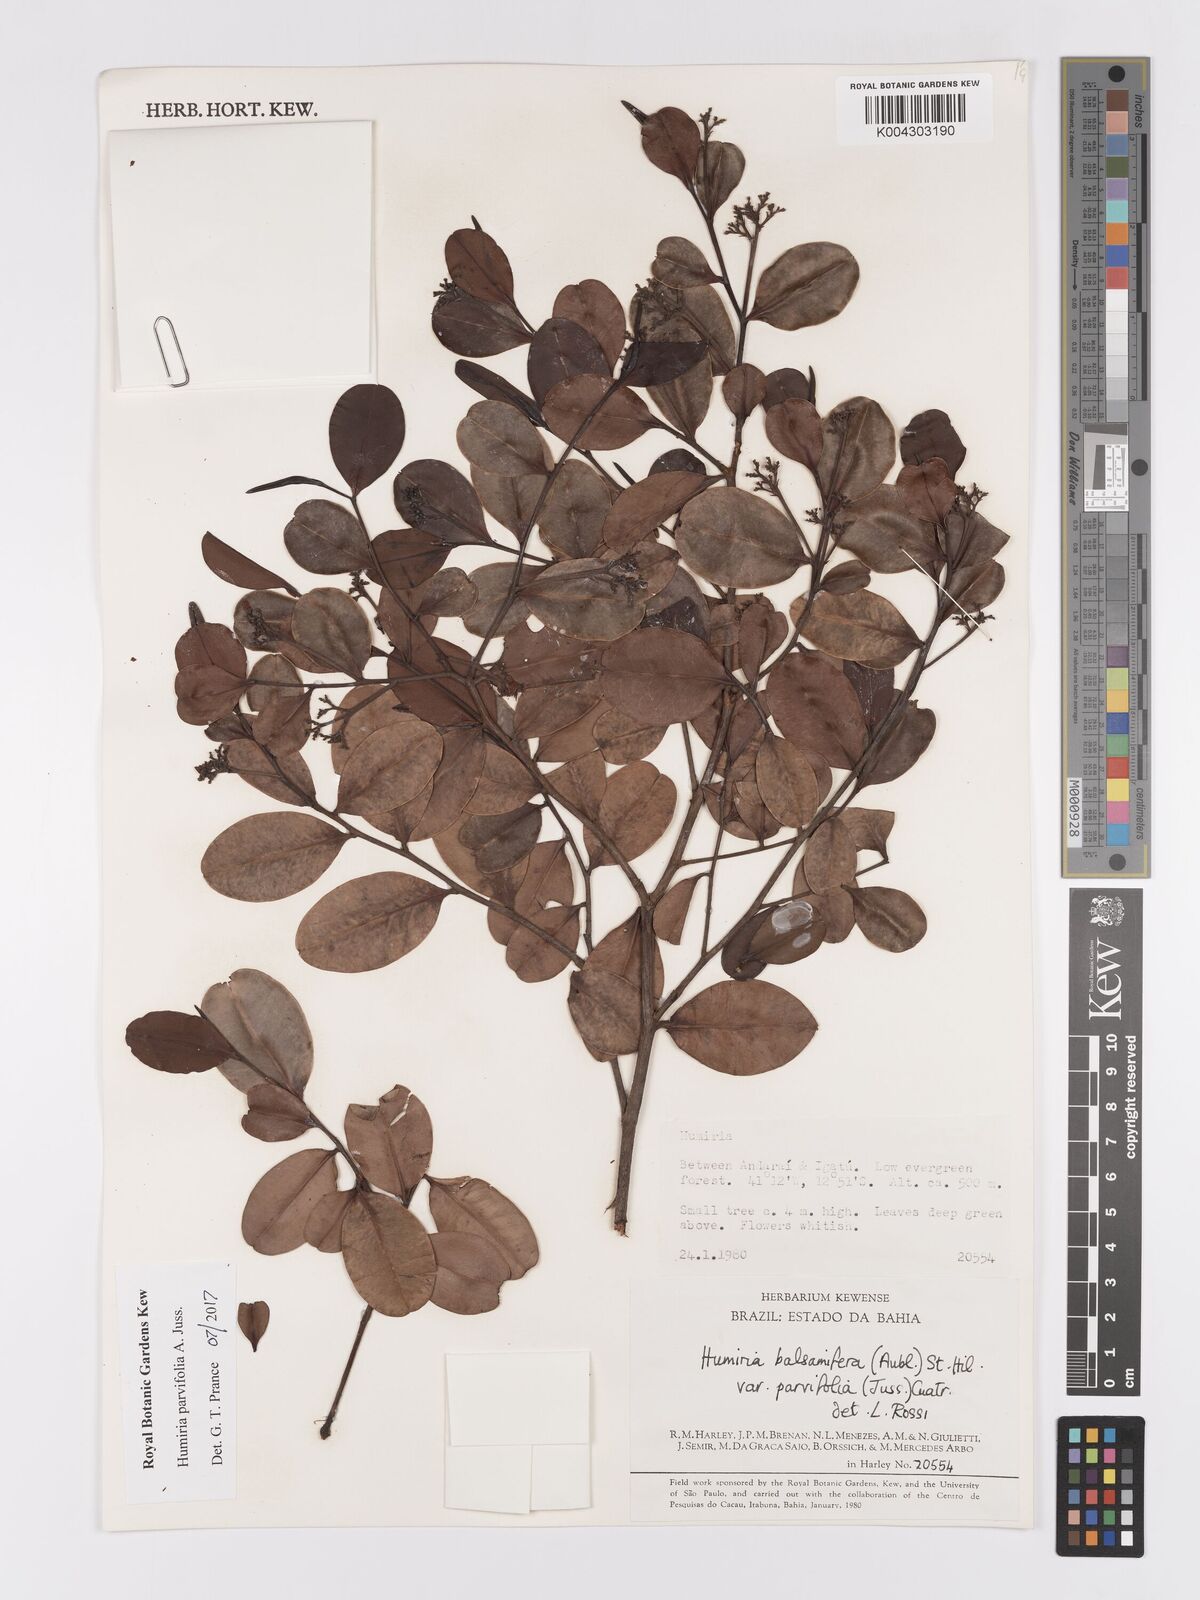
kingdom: Plantae
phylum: Tracheophyta
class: Magnoliopsida
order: Malpighiales
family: Humiriaceae
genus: Humiria
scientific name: Humiria parvifolia
